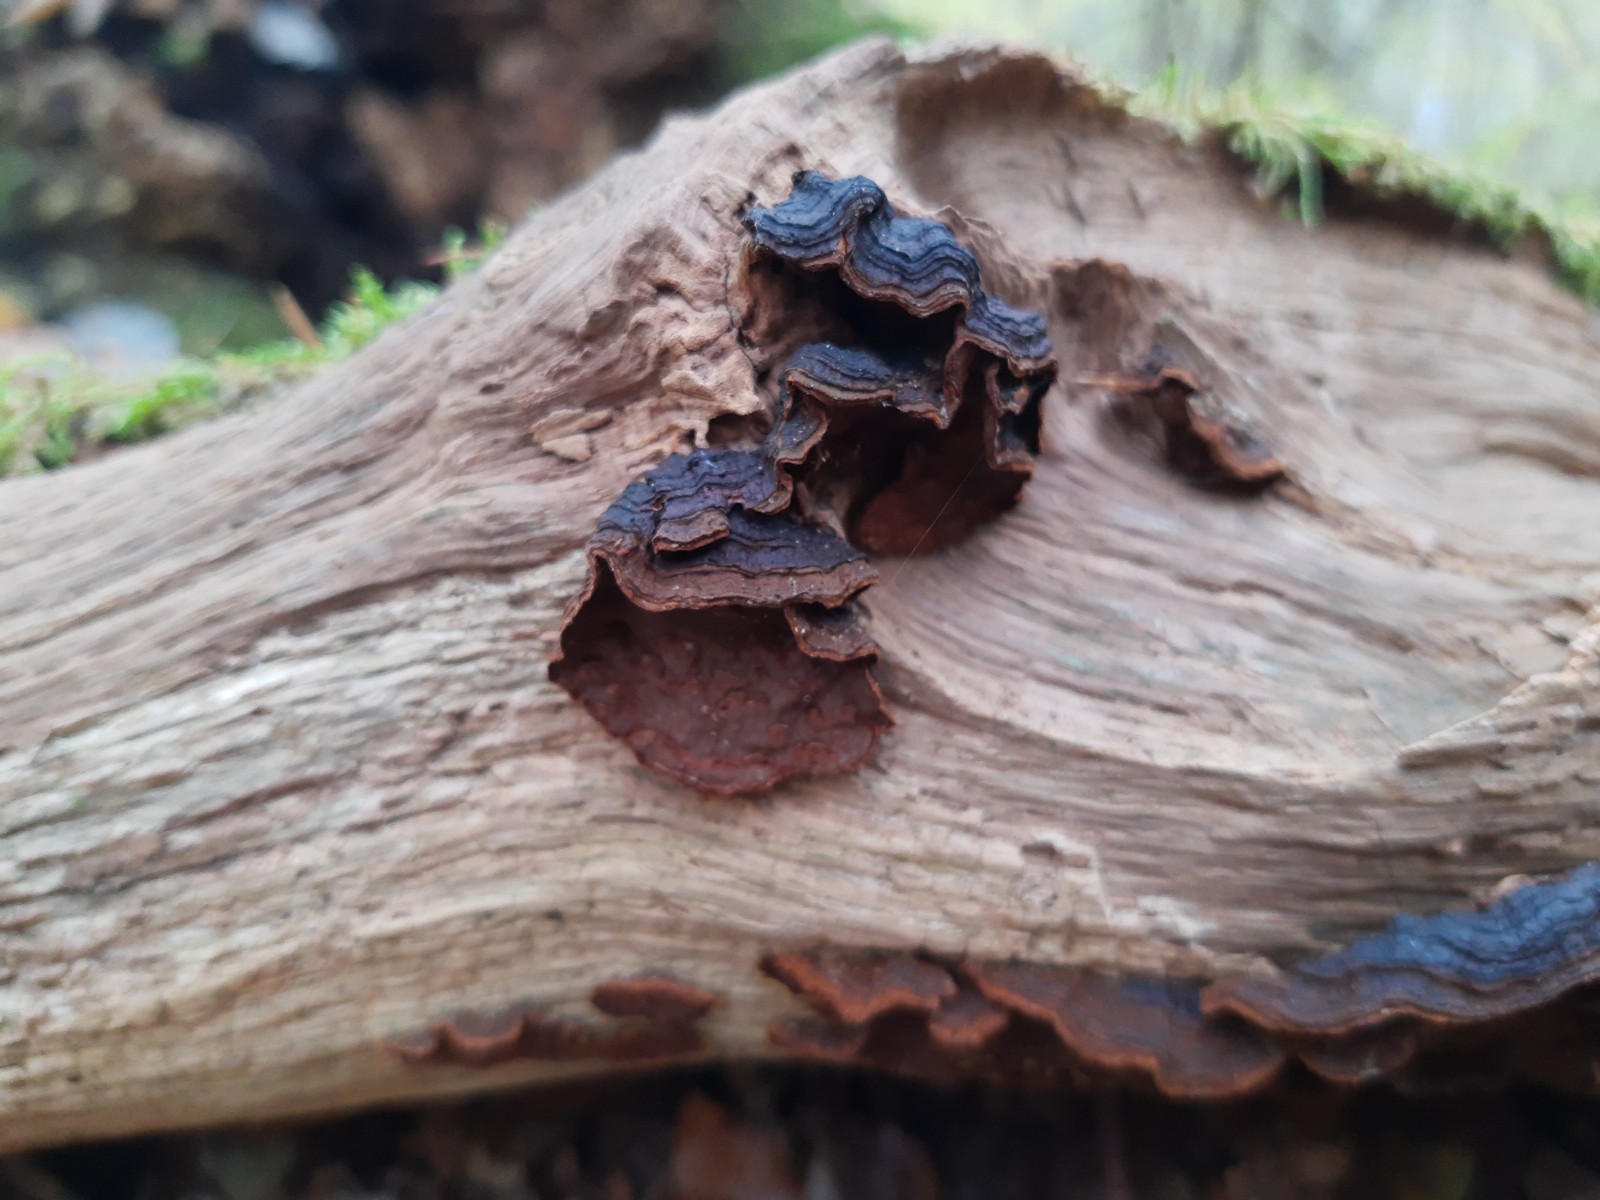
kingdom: Fungi
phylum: Basidiomycota
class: Agaricomycetes
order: Hymenochaetales
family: Hymenochaetaceae
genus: Hymenochaete
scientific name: Hymenochaete rubiginosa
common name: stiv ruslædersvamp
